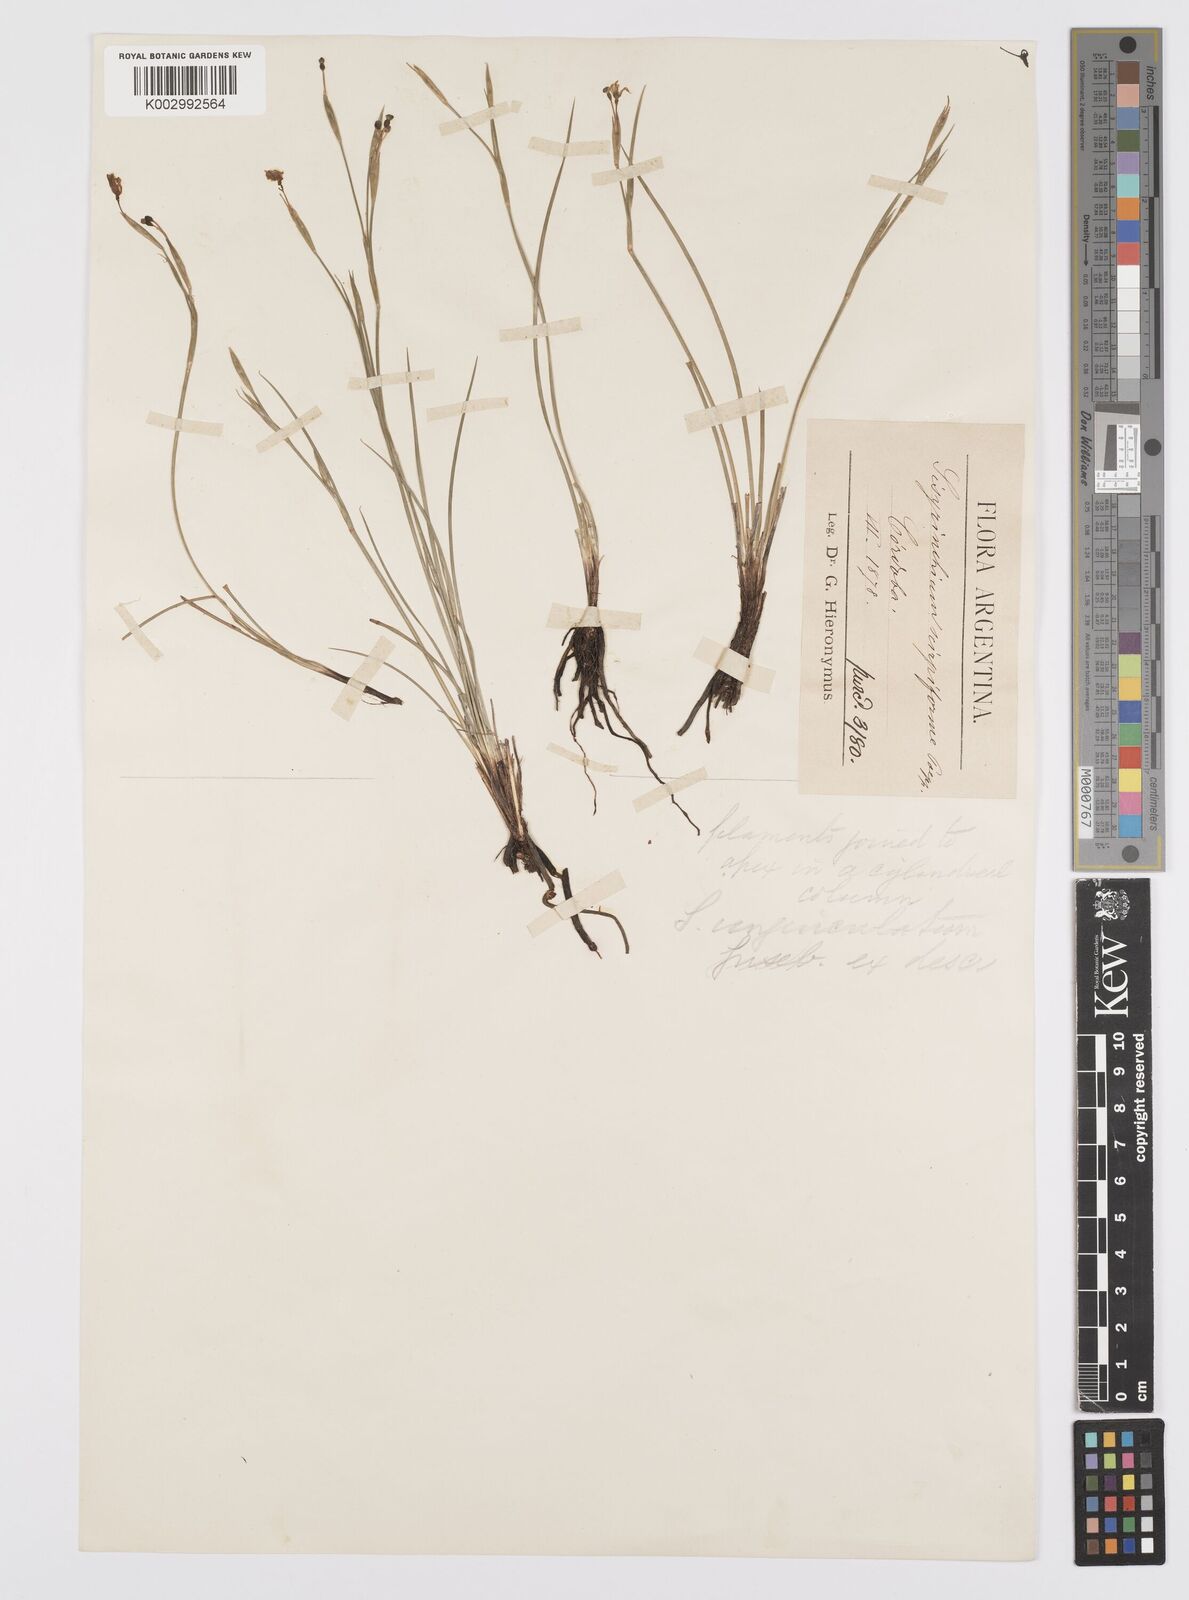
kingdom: Plantae
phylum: Tracheophyta
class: Liliopsida
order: Asparagales
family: Iridaceae
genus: Sisyrinchium
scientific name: Sisyrinchium unguiculatum
